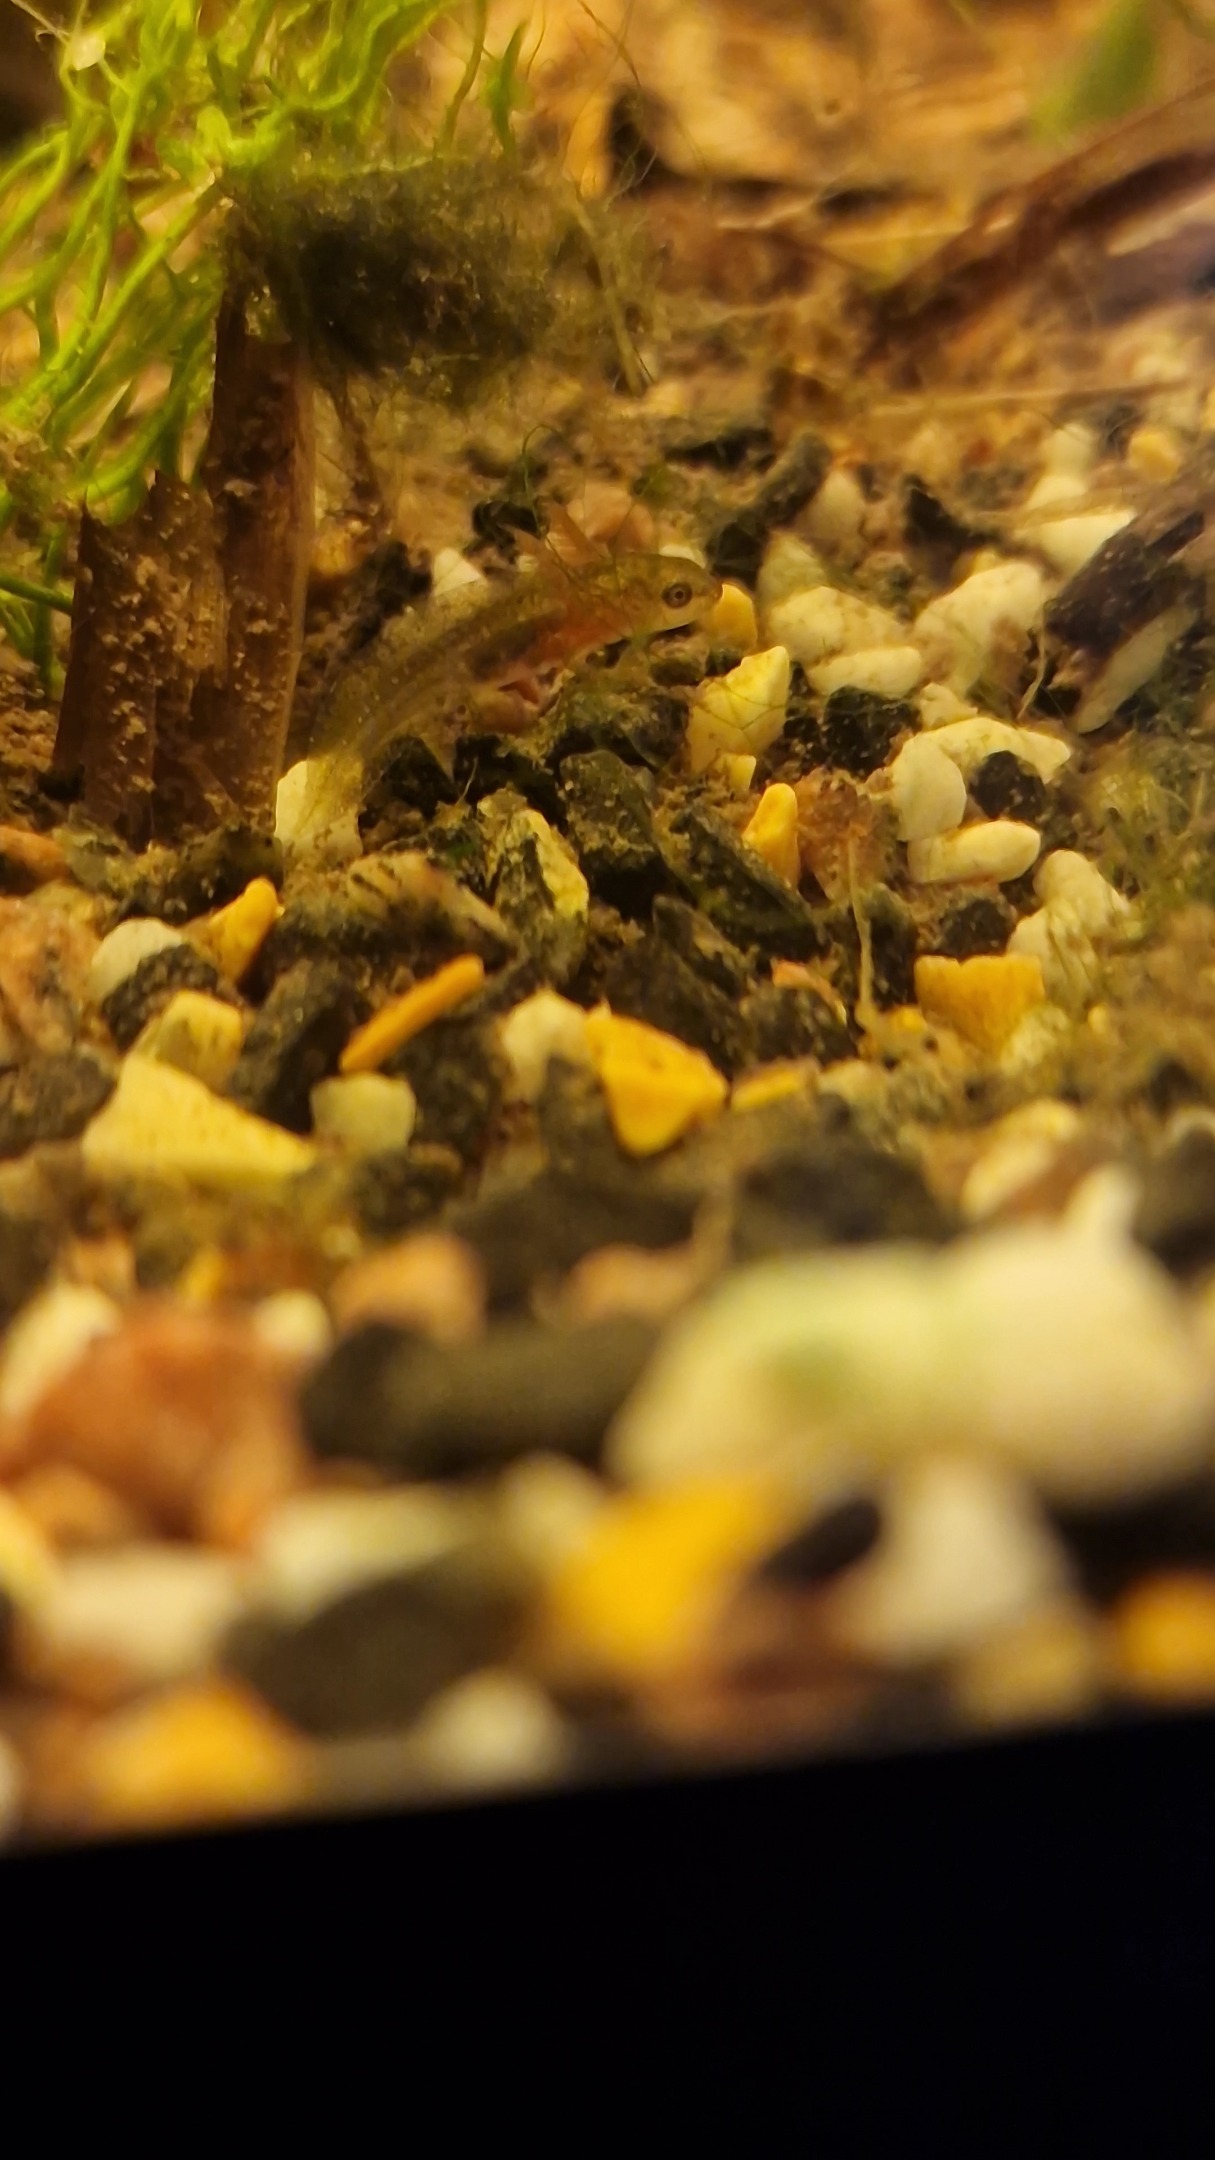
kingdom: Animalia
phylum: Chordata
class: Amphibia
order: Caudata
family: Salamandridae
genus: Lissotriton
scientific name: Lissotriton vulgaris
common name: Lille vandsalamander
